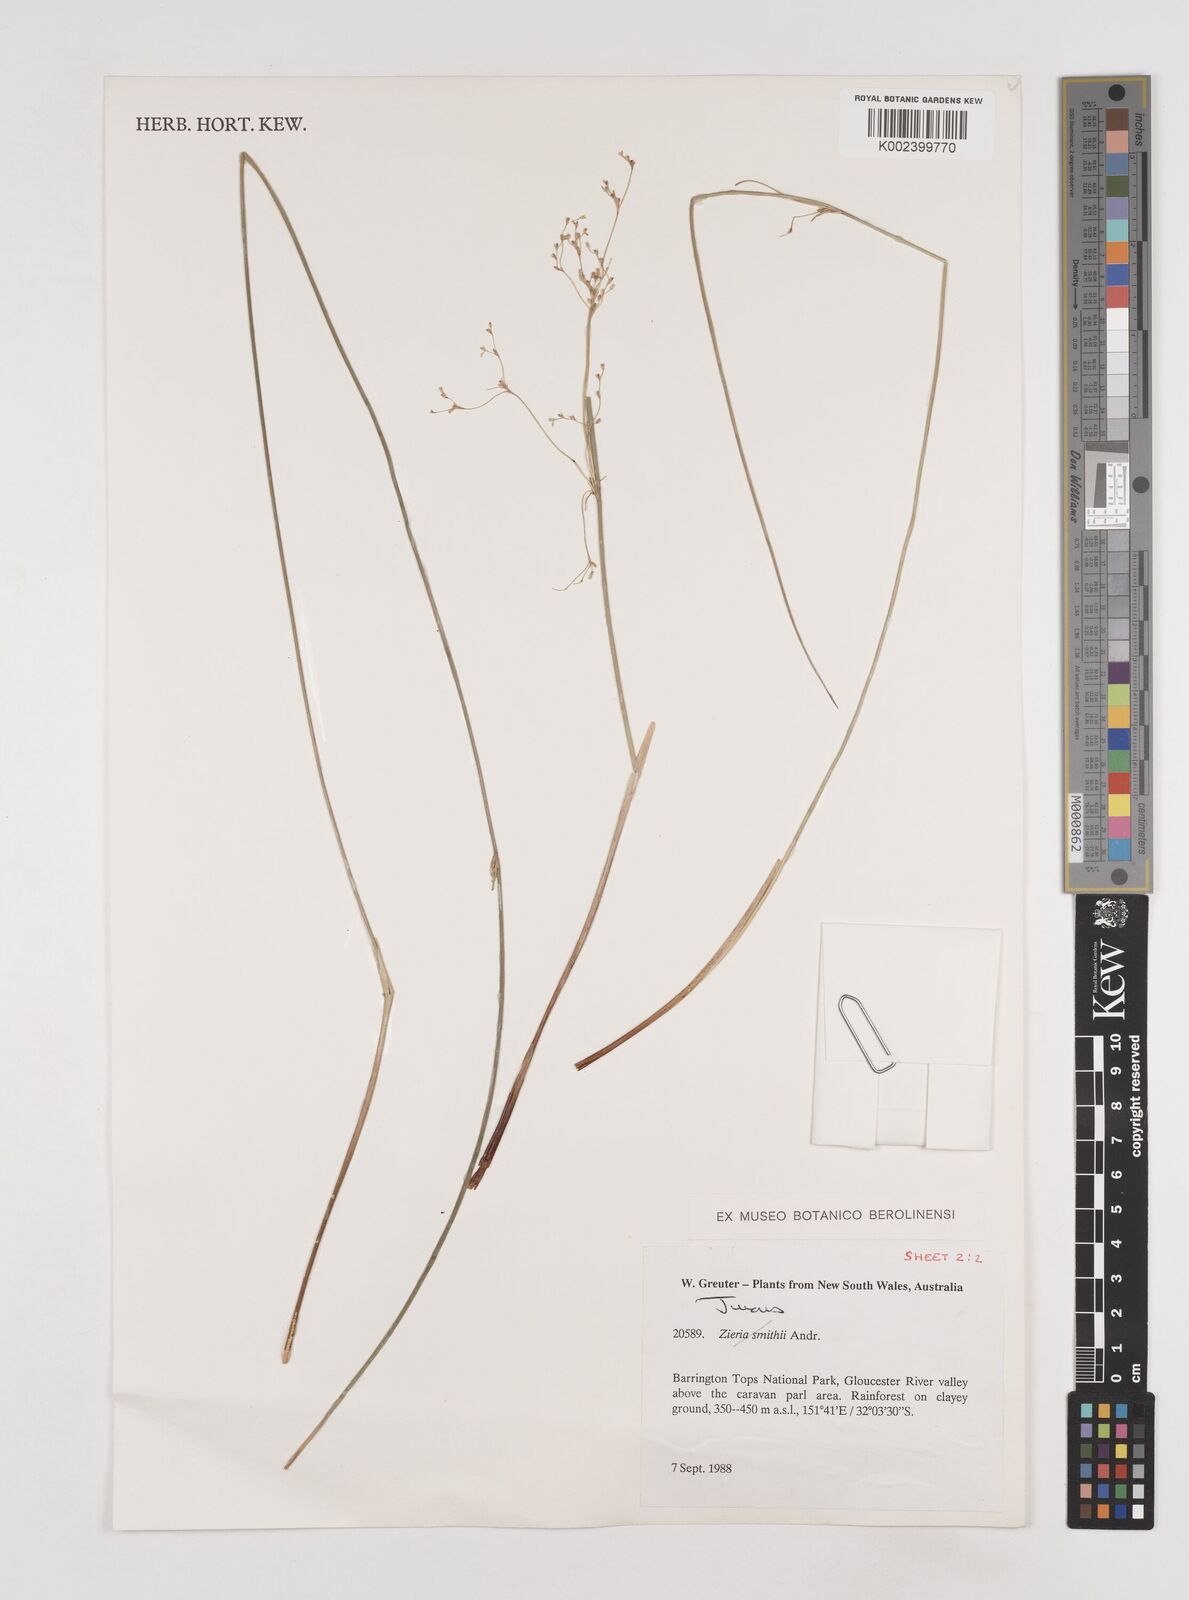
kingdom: Plantae
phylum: Tracheophyta
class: Liliopsida
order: Poales
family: Juncaceae
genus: Juncus
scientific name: Juncus
